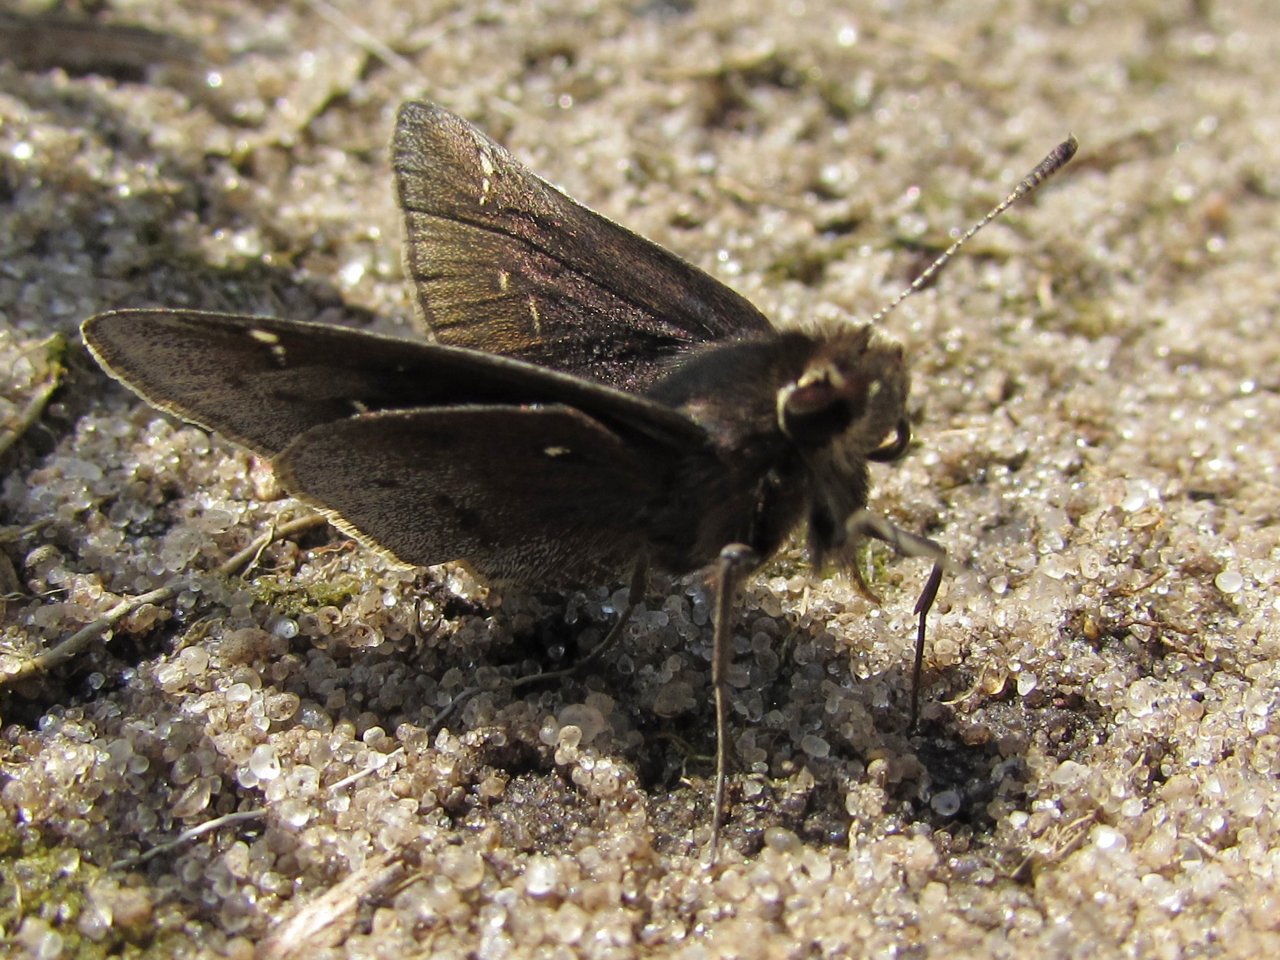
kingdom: Animalia
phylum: Arthropoda
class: Insecta
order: Lepidoptera
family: Hesperiidae
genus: Atrytonopsis
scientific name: Atrytonopsis hianna
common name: Dusted Skipper
